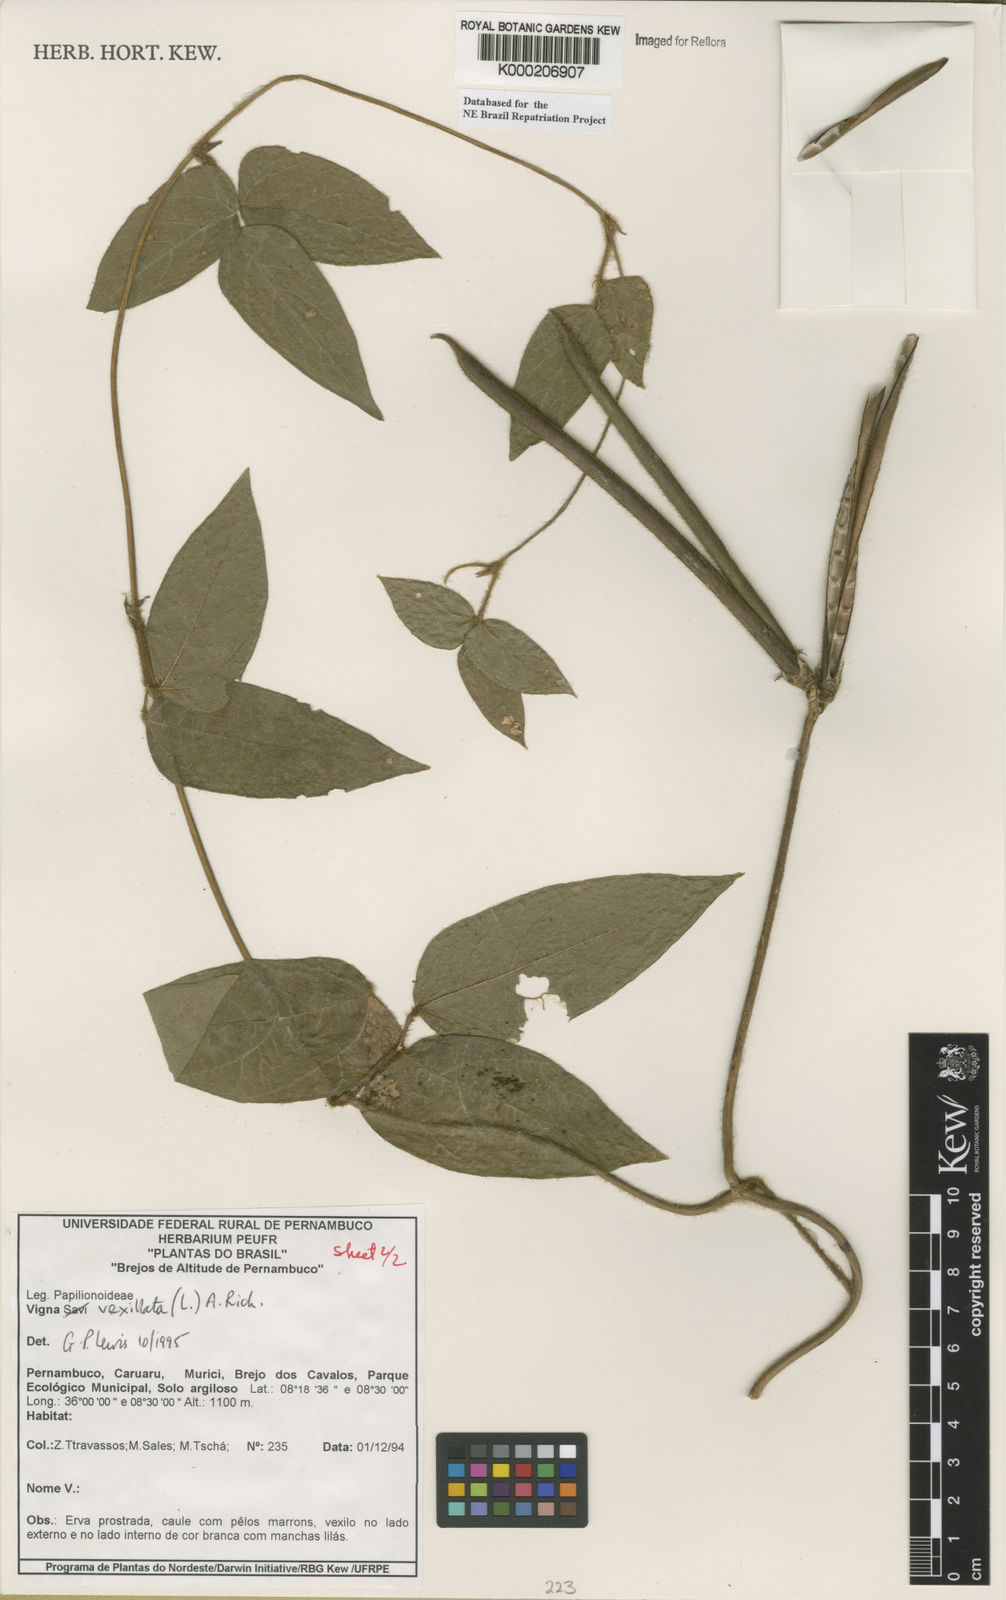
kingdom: Plantae
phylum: Tracheophyta
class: Magnoliopsida
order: Fabales
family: Fabaceae
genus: Vigna
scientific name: Vigna vexillata
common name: Zombi pea
